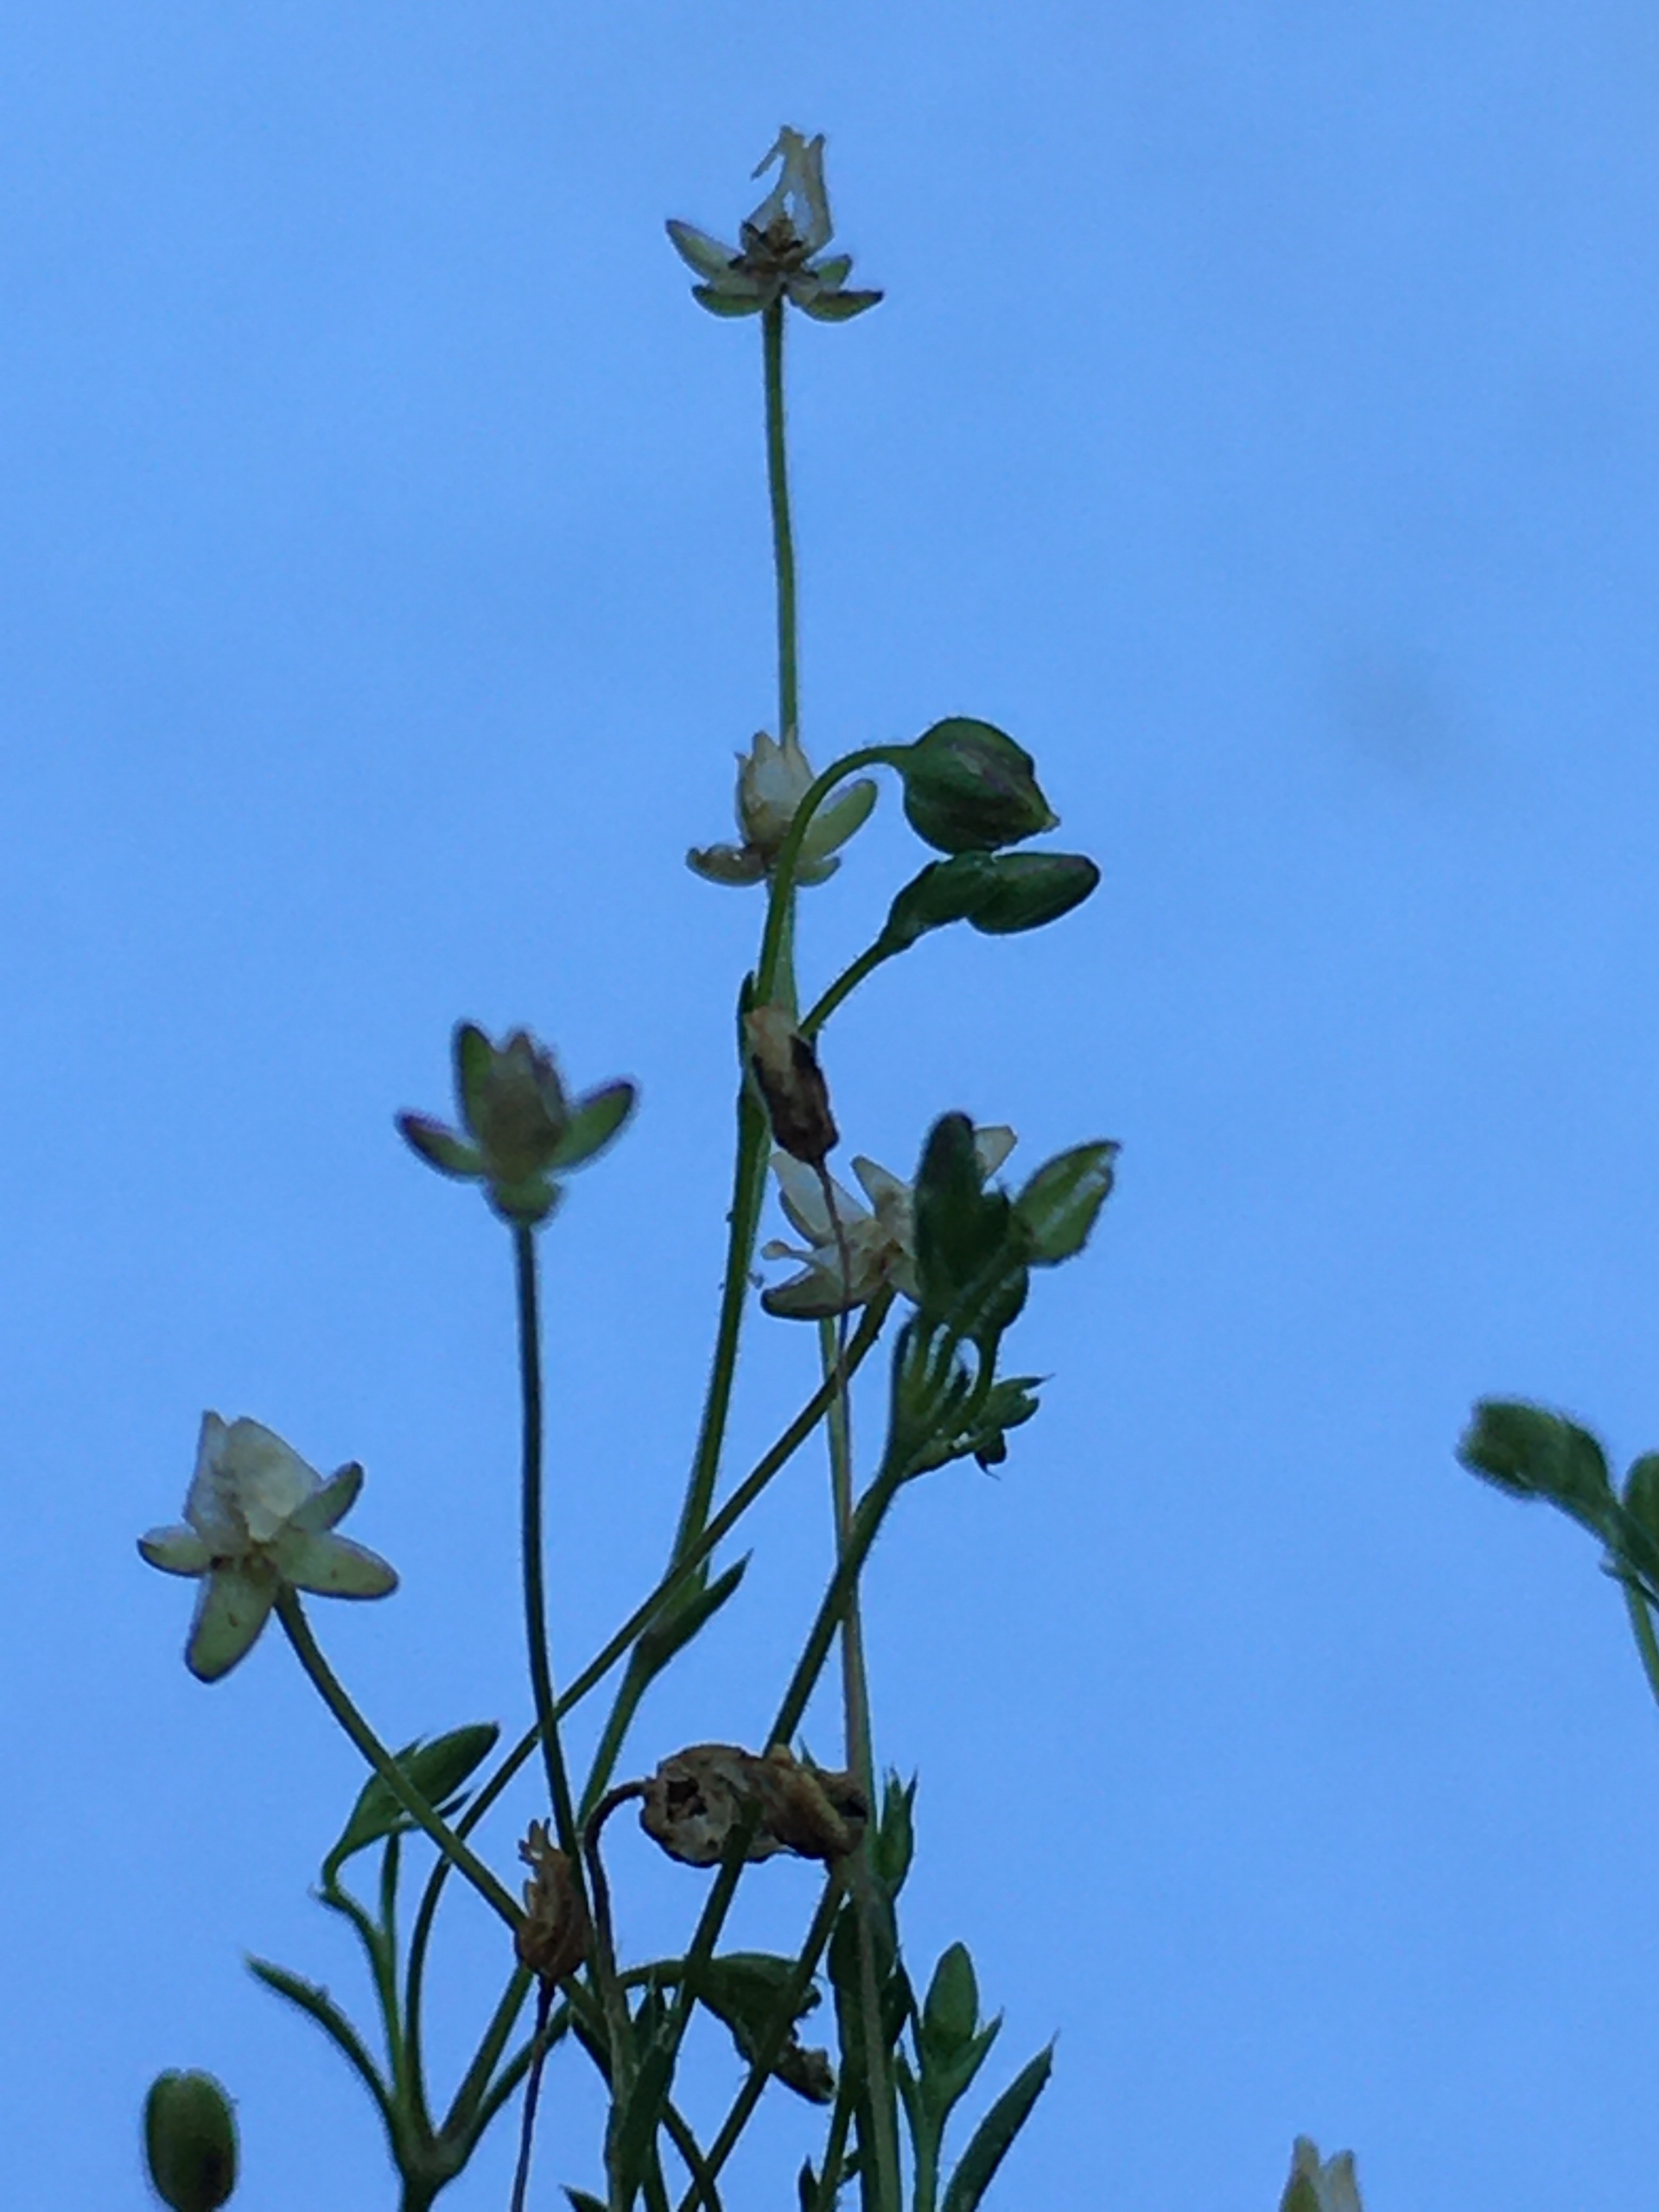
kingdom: Plantae
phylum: Tracheophyta
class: Magnoliopsida
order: Caryophyllales
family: Caryophyllaceae
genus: Sagina
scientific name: Sagina micropetala
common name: Håret firling
